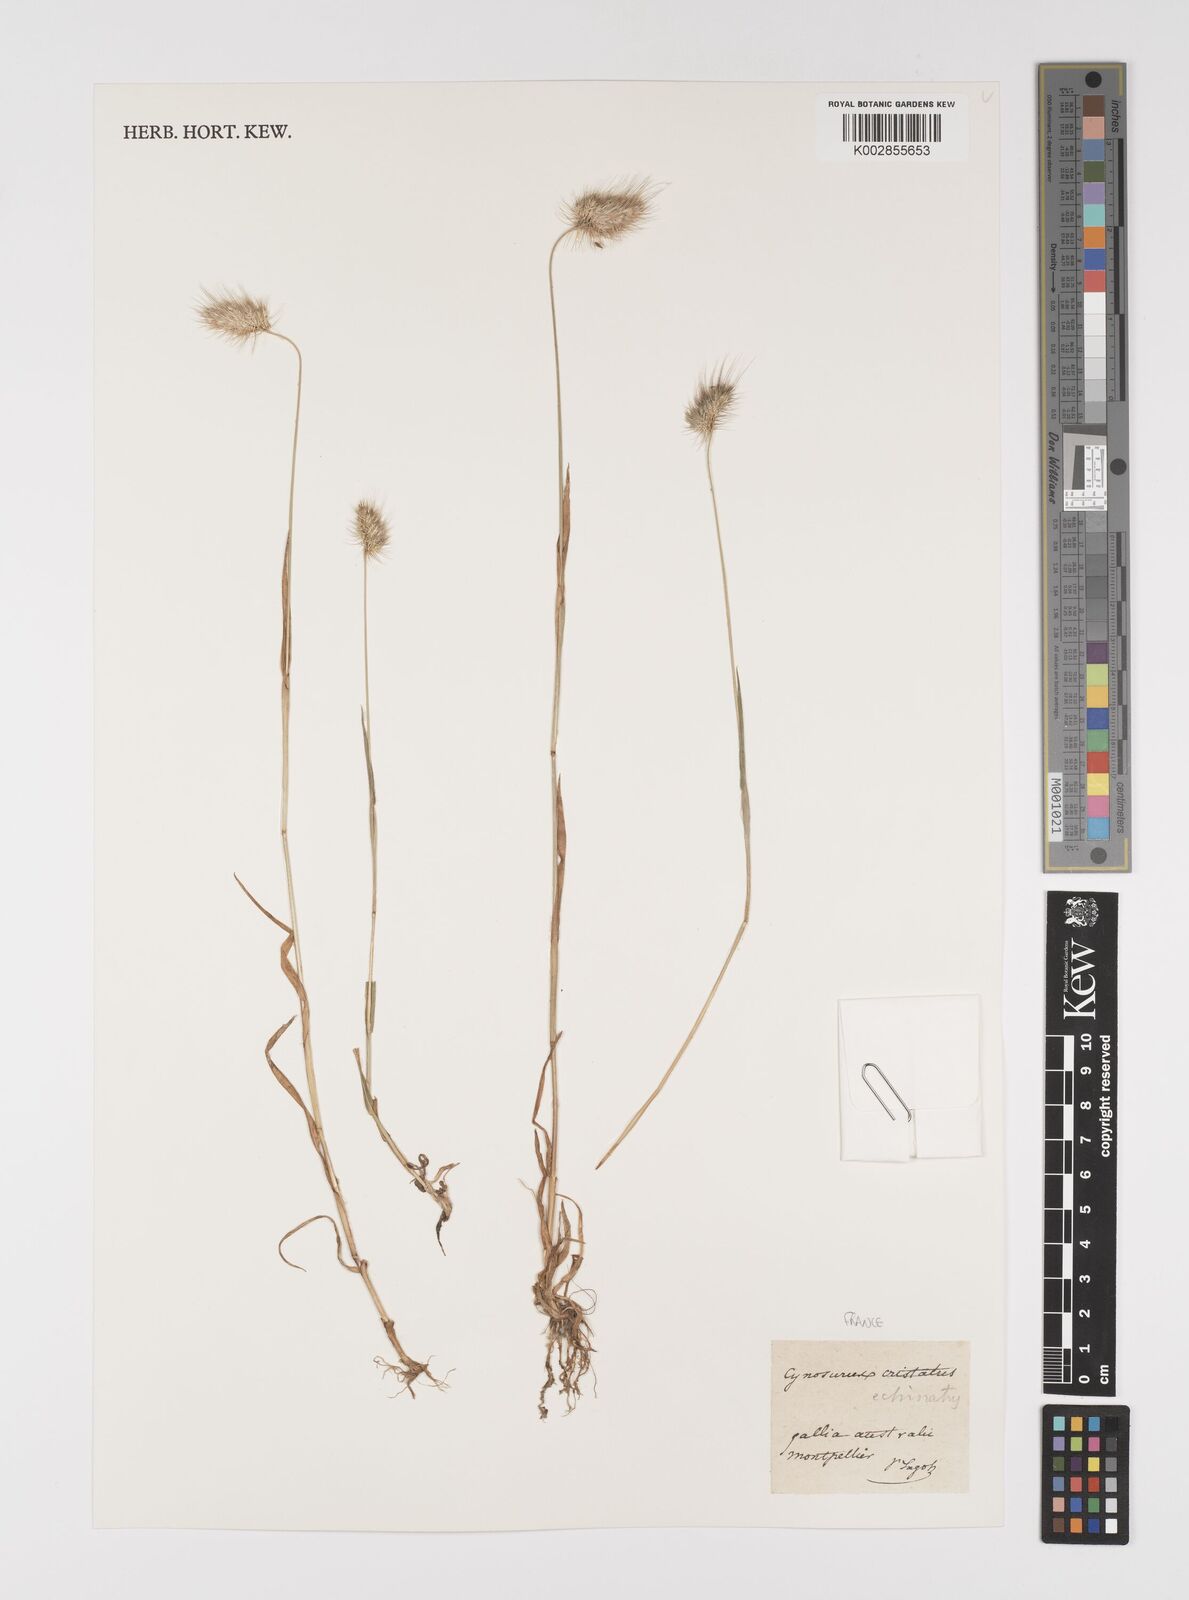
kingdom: Plantae
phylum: Tracheophyta
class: Liliopsida
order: Poales
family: Poaceae
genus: Cynosurus
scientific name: Cynosurus echinatus
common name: Rough dog's-tail
